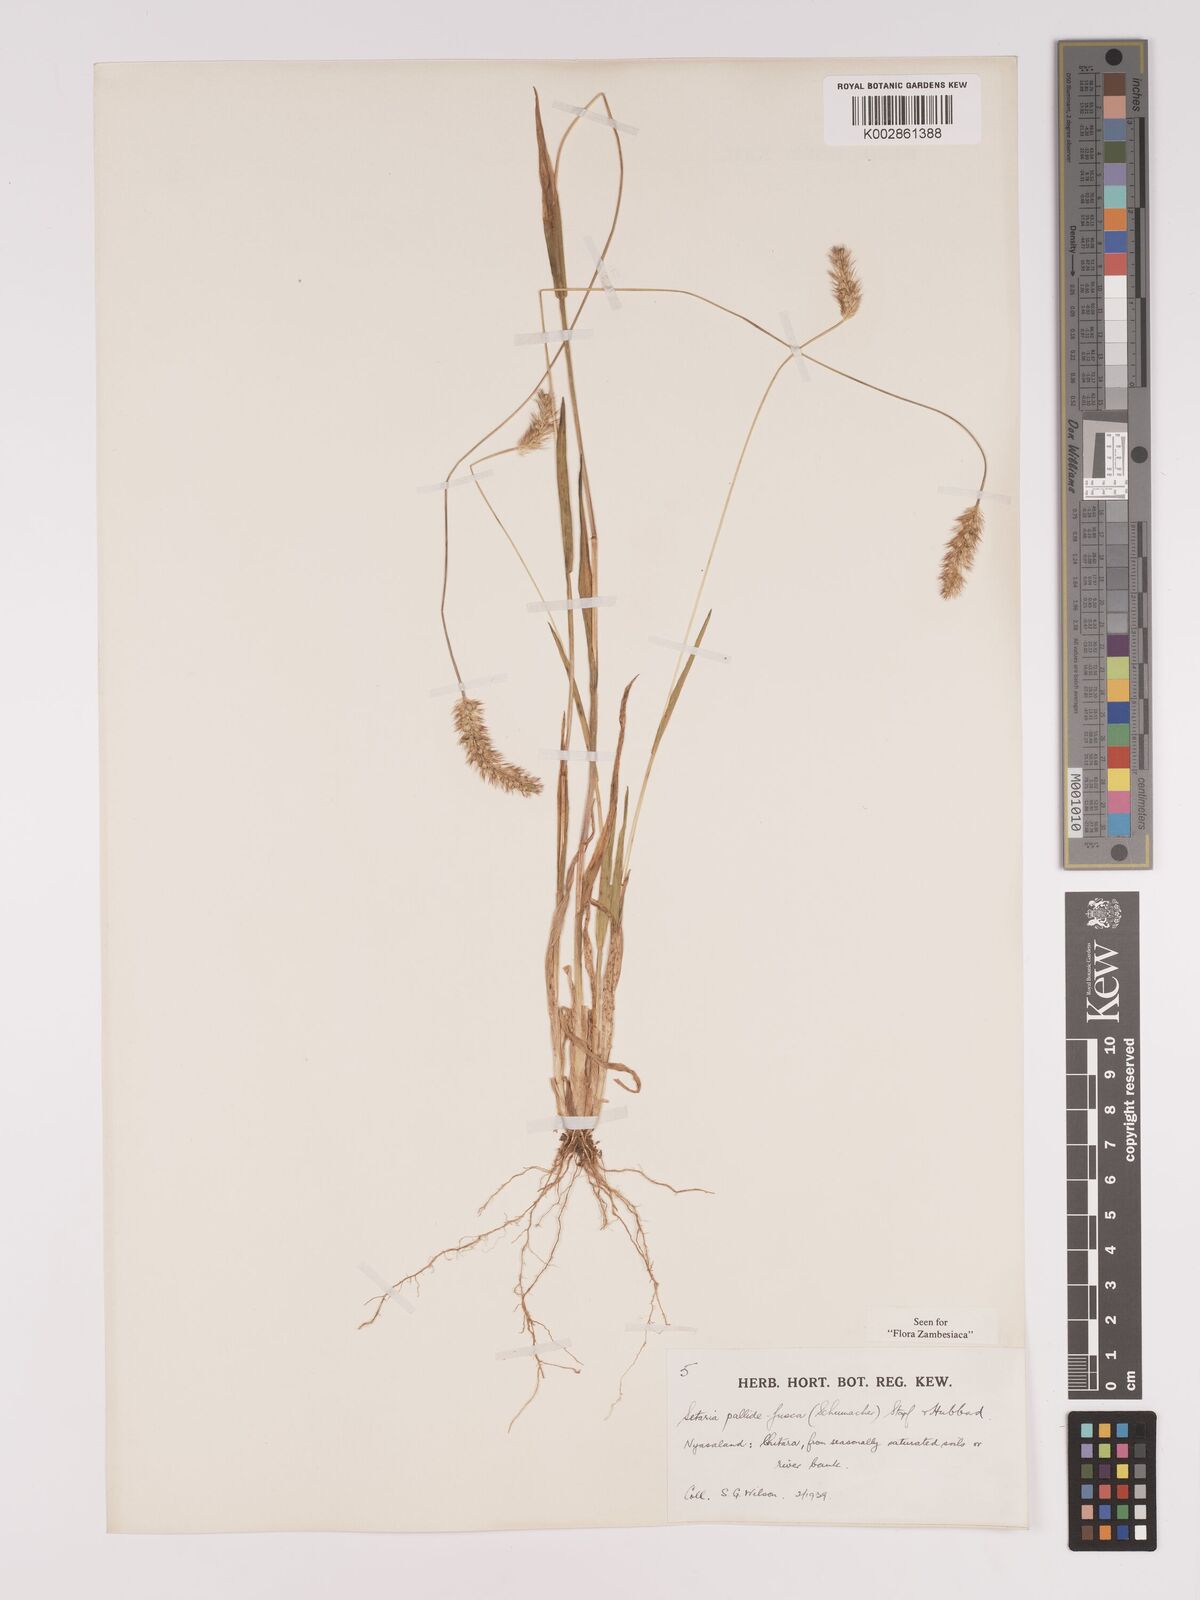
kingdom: Plantae
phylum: Tracheophyta
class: Liliopsida
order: Poales
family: Poaceae
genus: Setaria
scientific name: Setaria pumila
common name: Yellow bristle-grass
